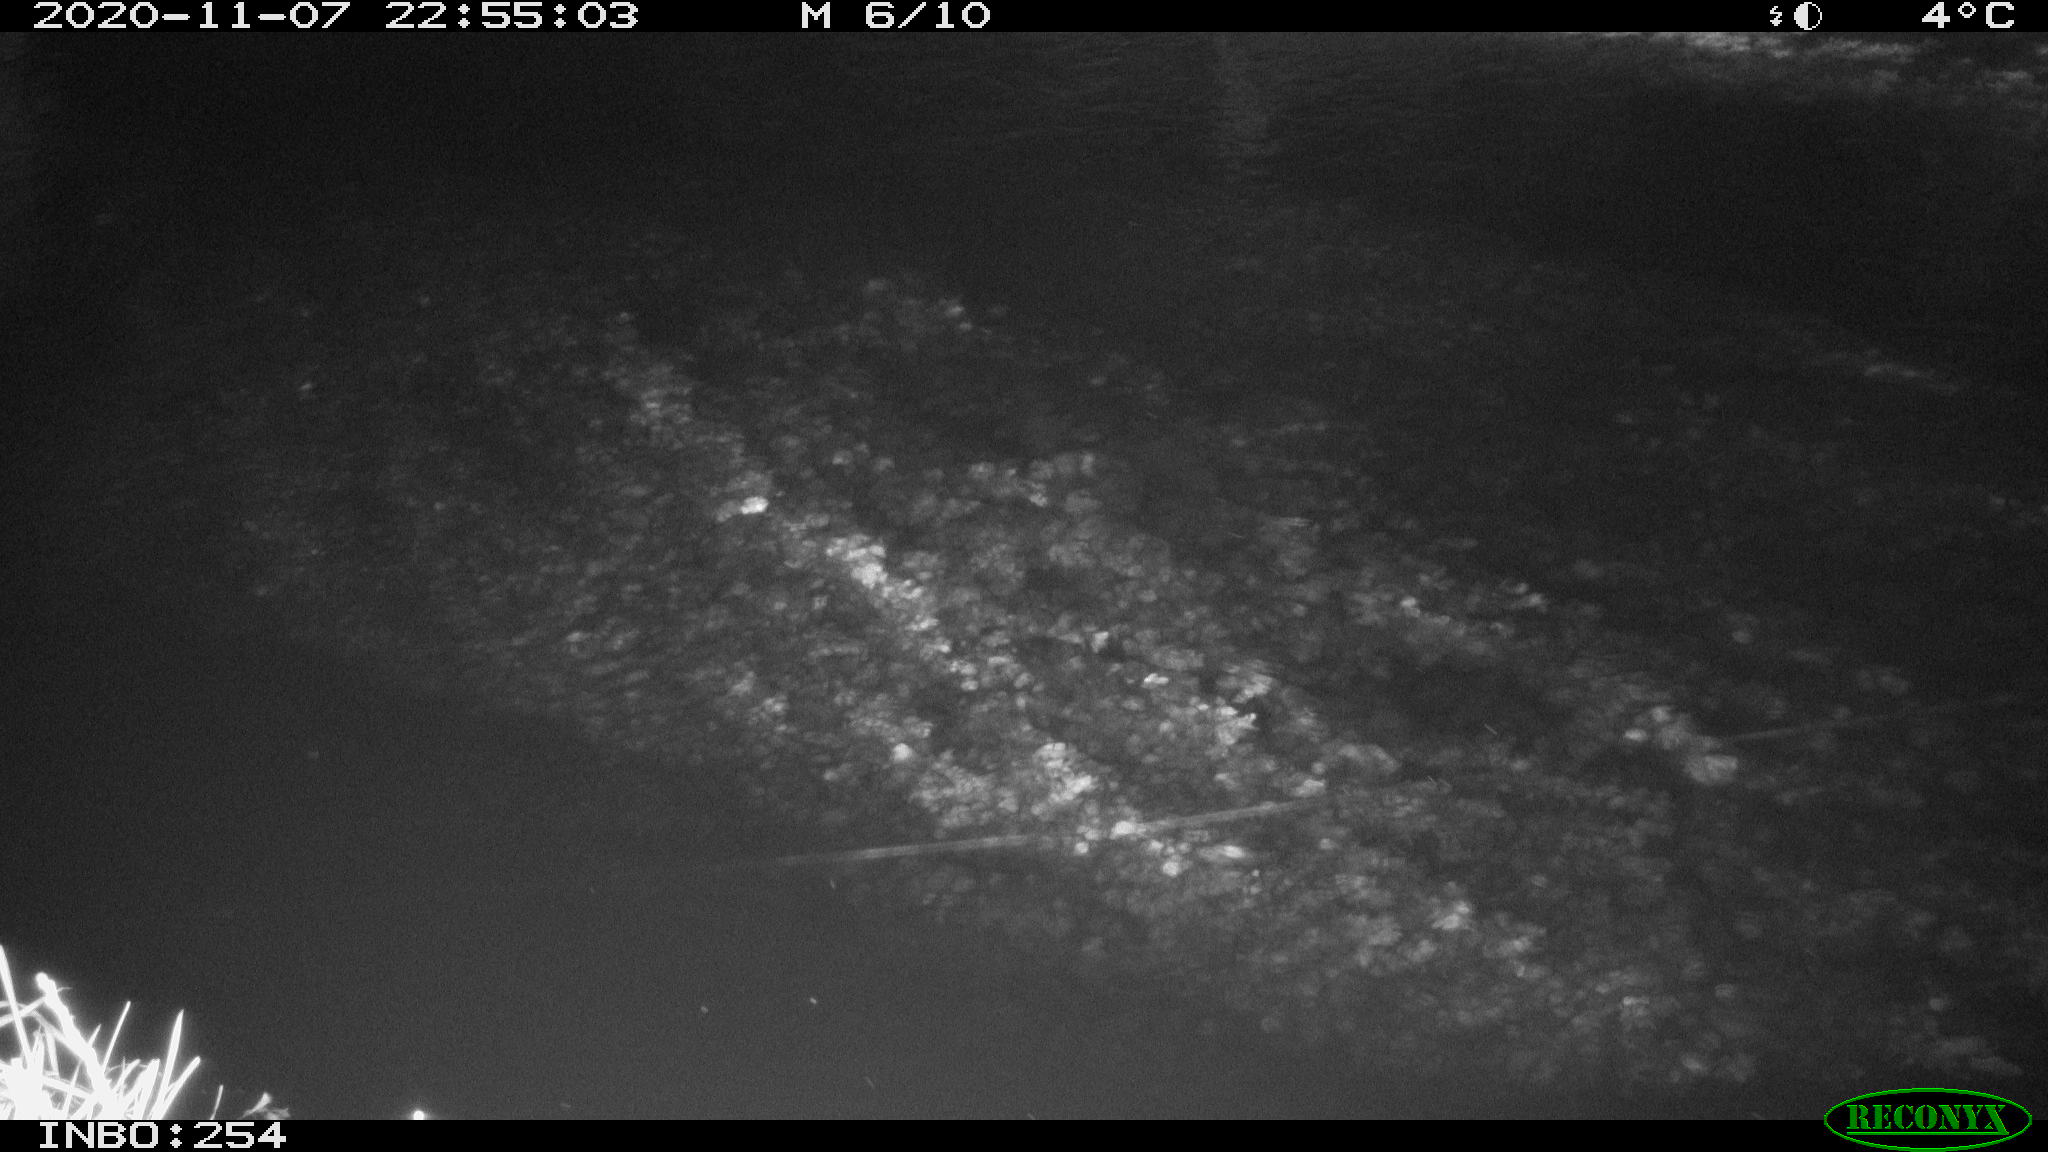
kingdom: Animalia
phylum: Chordata
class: Aves
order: Anseriformes
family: Anatidae
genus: Anas
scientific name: Anas platyrhynchos
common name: Mallard
